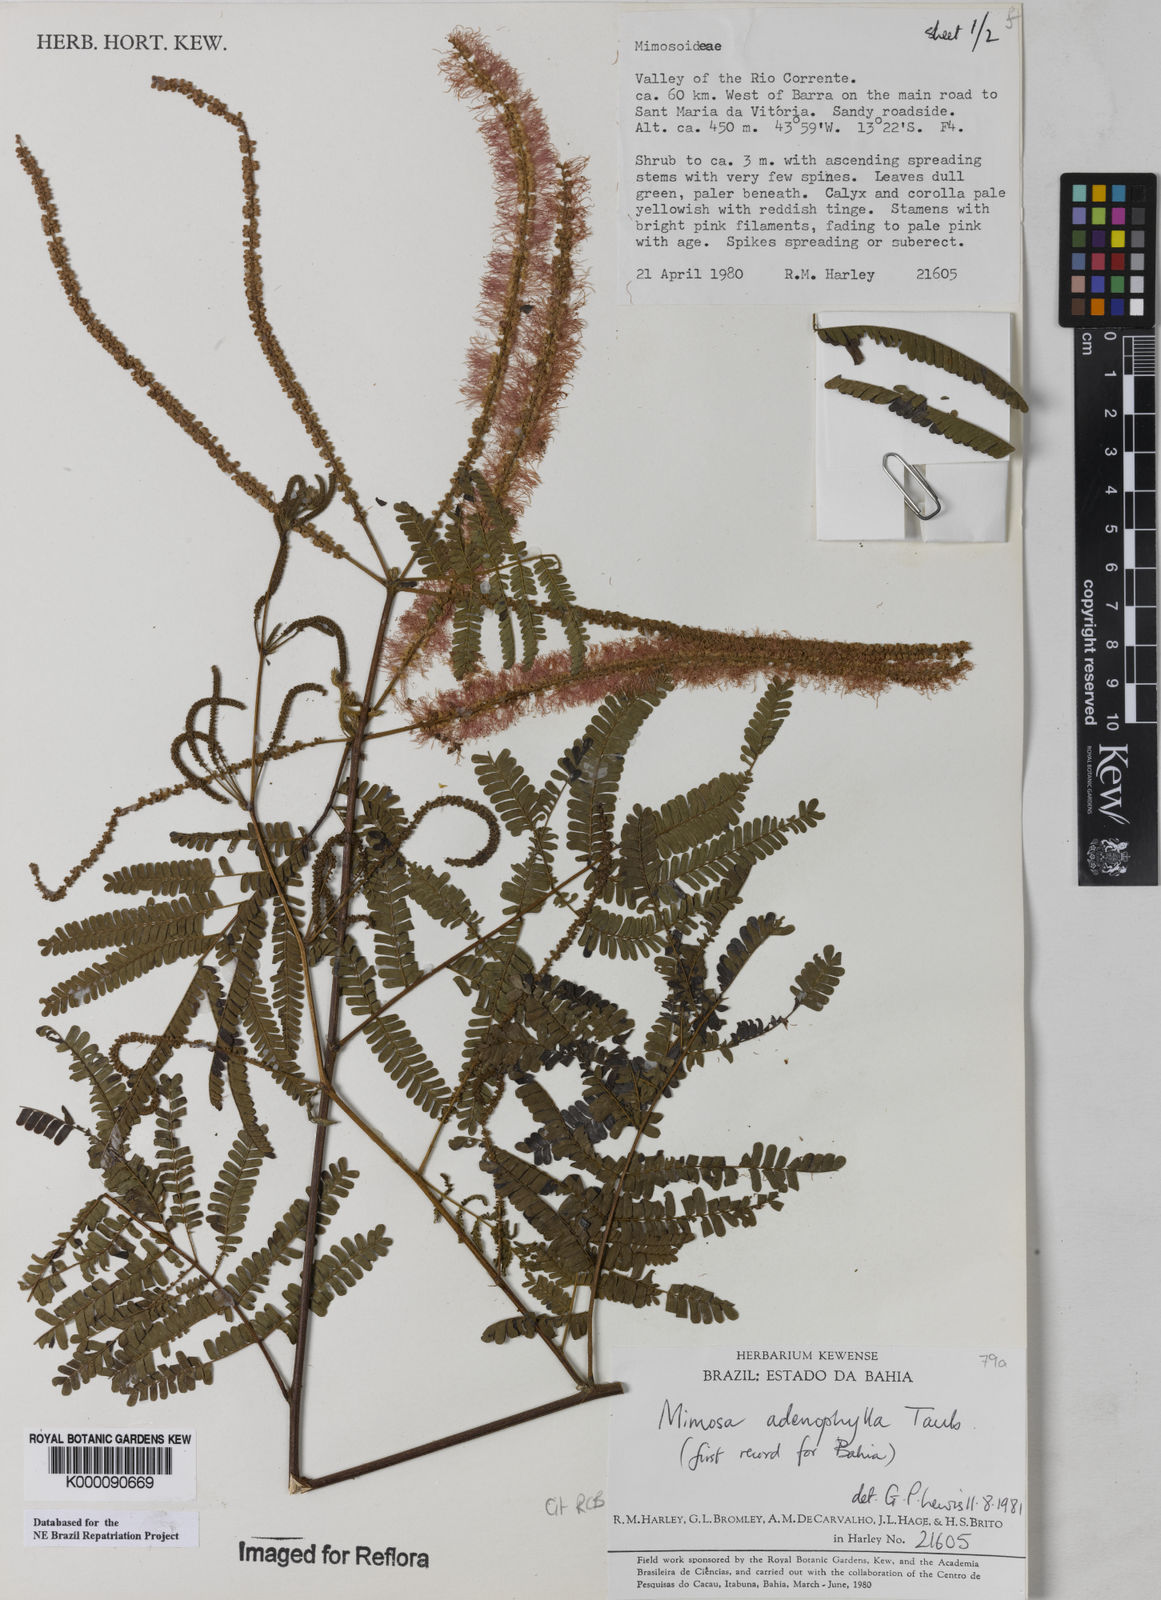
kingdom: Plantae
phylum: Tracheophyta
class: Magnoliopsida
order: Fabales
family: Fabaceae
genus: Mimosa
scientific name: Mimosa pteridifolia
